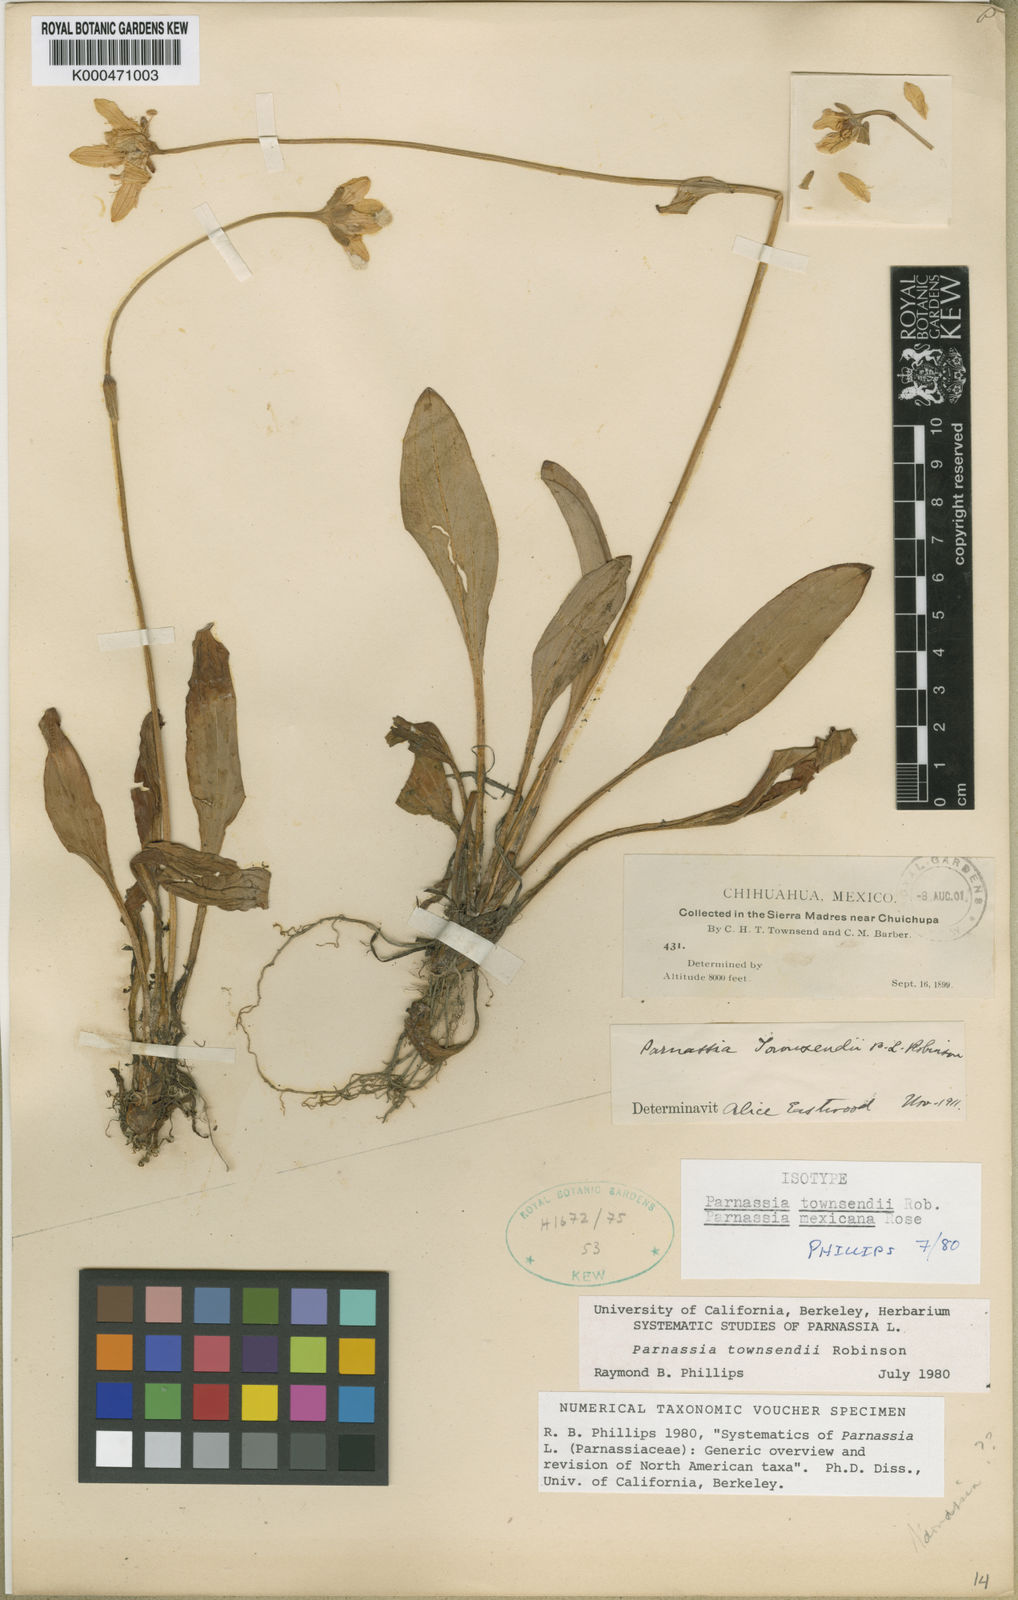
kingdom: Plantae
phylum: Tracheophyta
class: Magnoliopsida
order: Celastrales
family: Parnassiaceae
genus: Parnassia
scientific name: Parnassia townsendii
